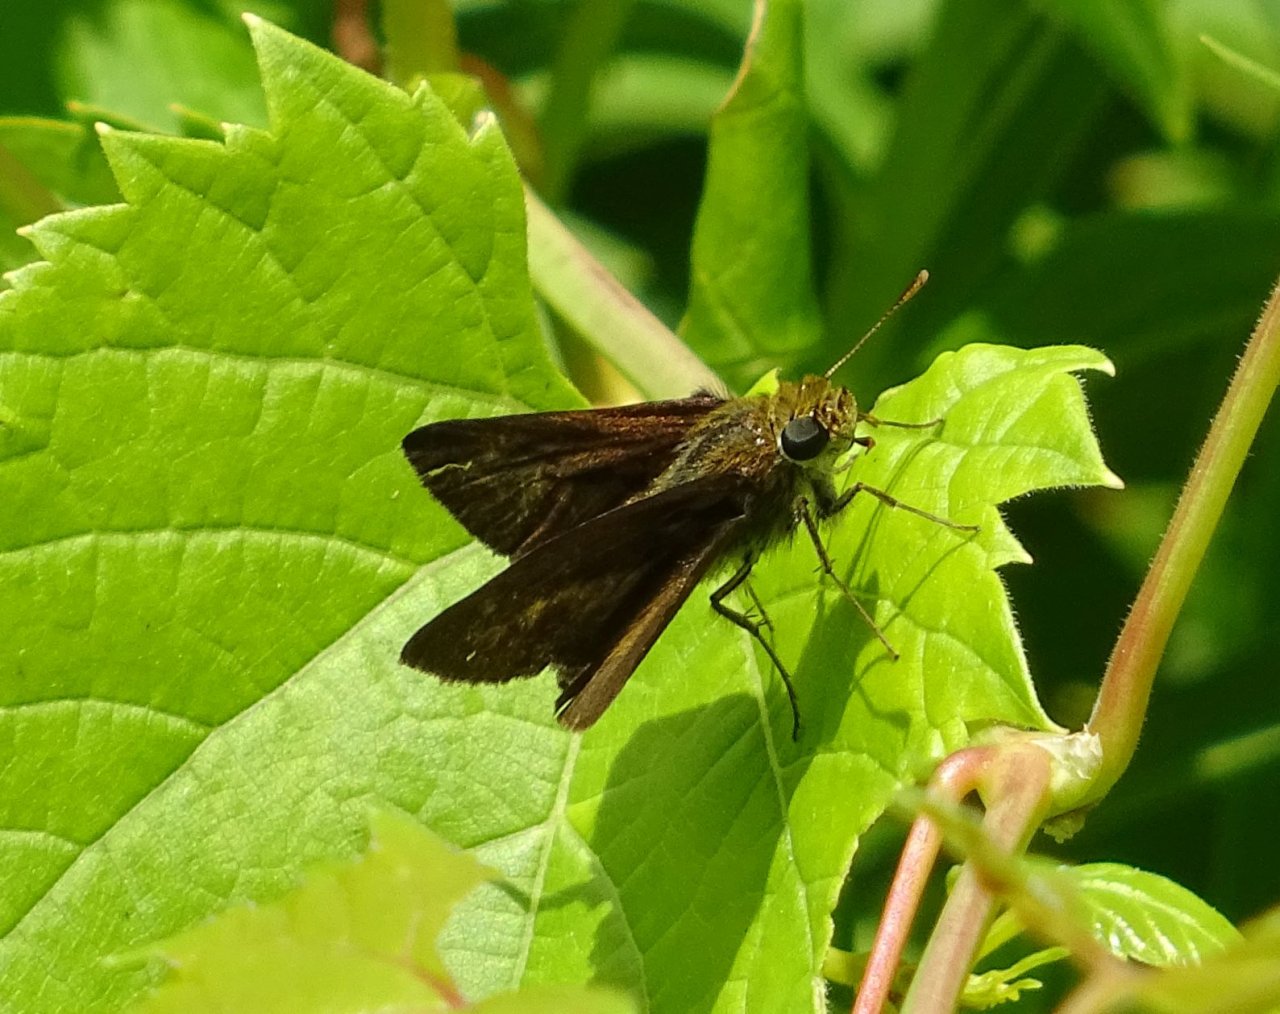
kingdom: Animalia
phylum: Arthropoda
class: Insecta
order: Lepidoptera
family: Hesperiidae
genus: Euphyes
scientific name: Euphyes vestris
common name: Dun Skipper
